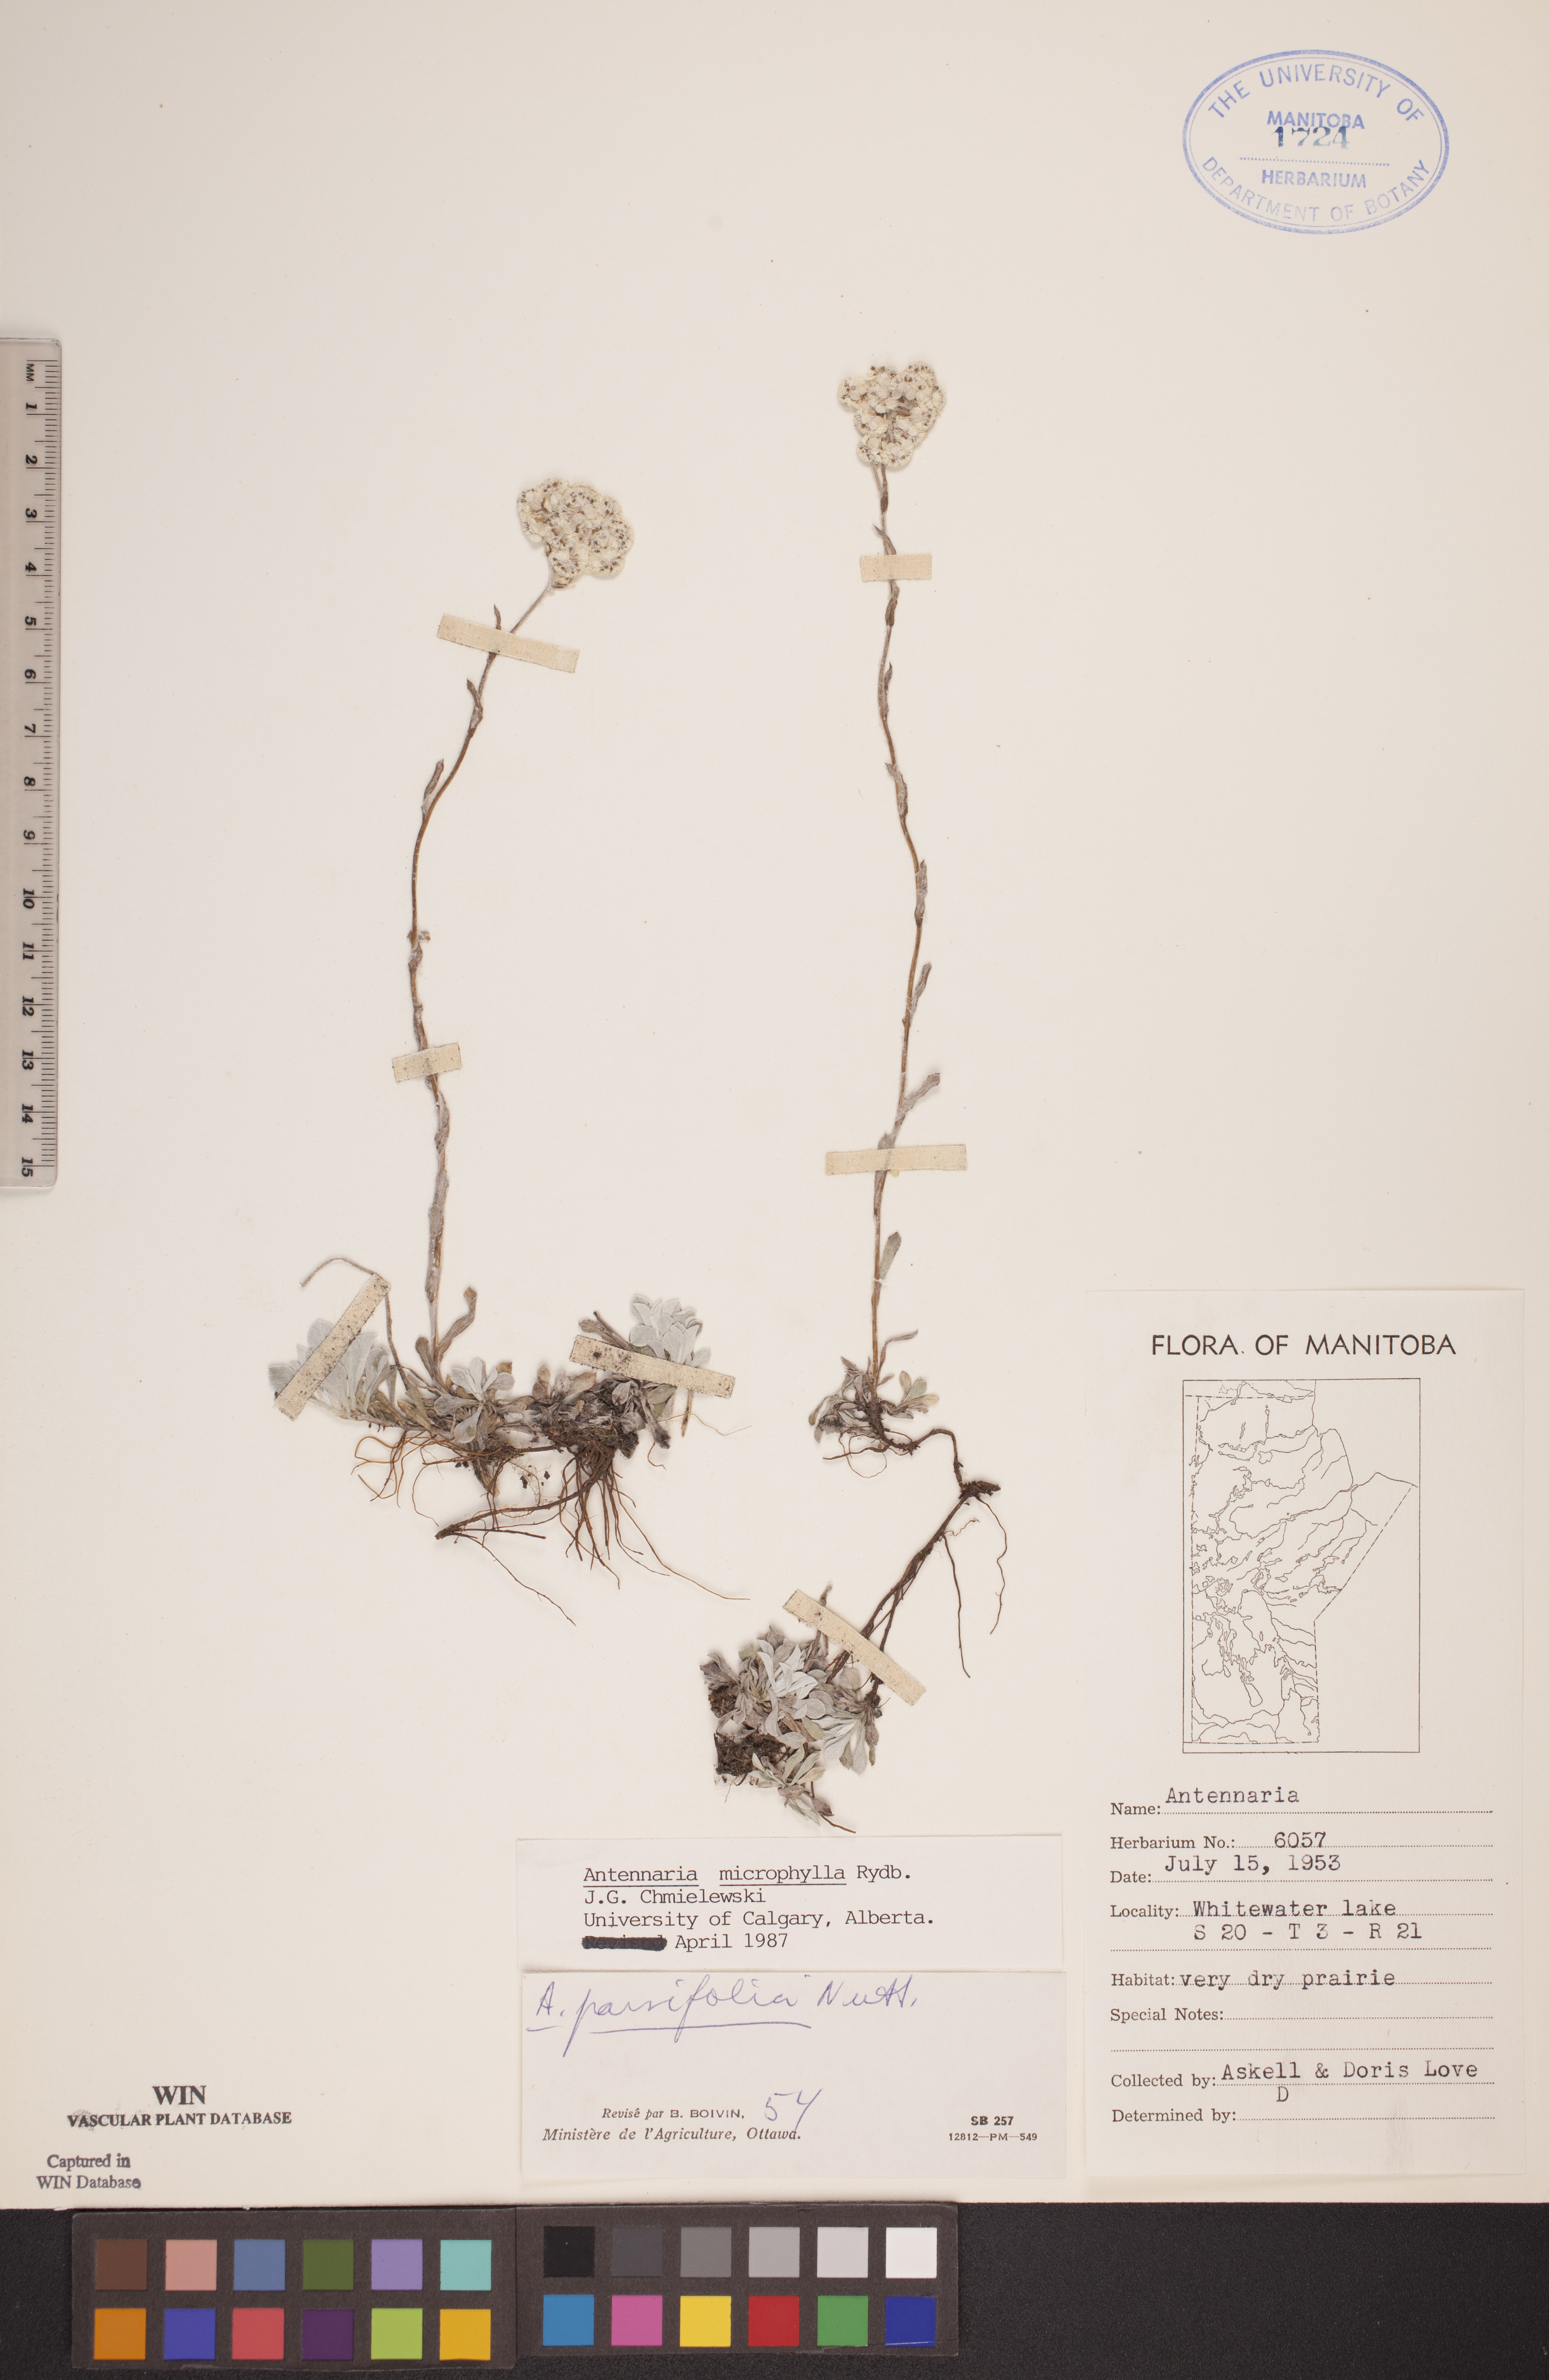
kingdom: Plantae
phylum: Tracheophyta
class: Magnoliopsida
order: Asterales
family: Asteraceae
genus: Antennaria
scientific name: Antennaria microphylla
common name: Littleleaf pussytoes
